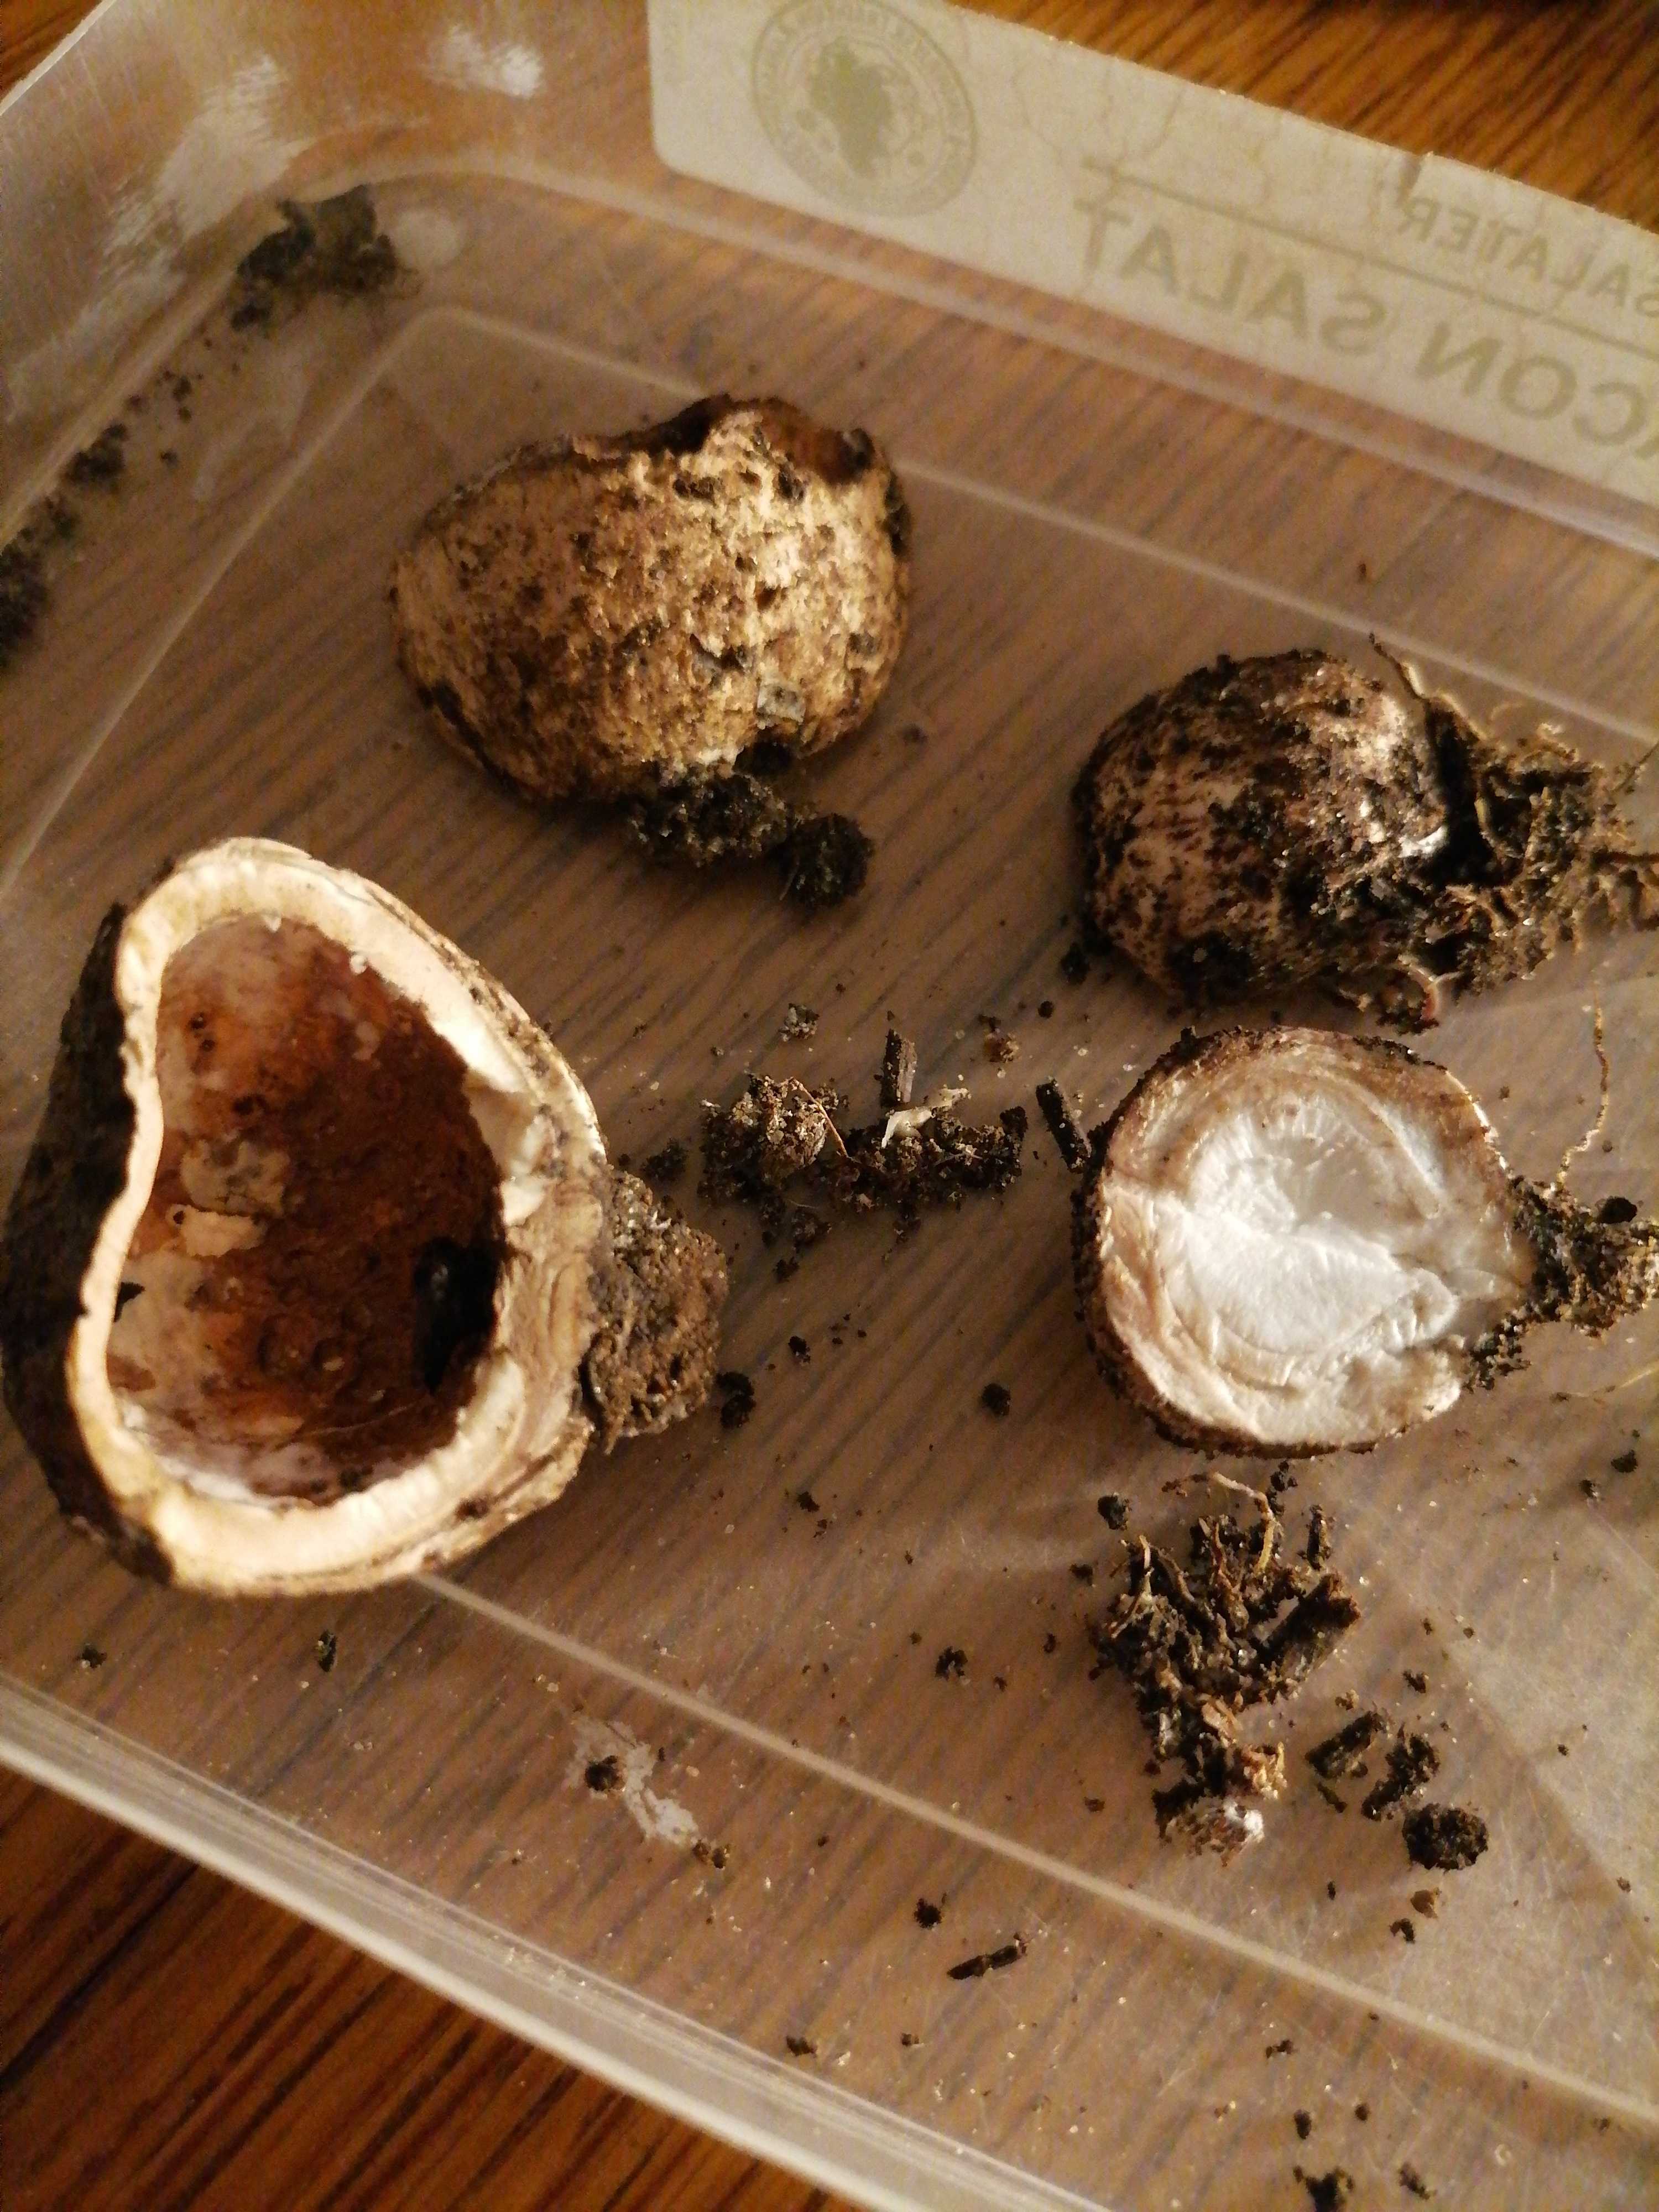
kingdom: Fungi
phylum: Basidiomycota
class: Agaricomycetes
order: Geastrales
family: Geastraceae
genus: Geastrum
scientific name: Geastrum
